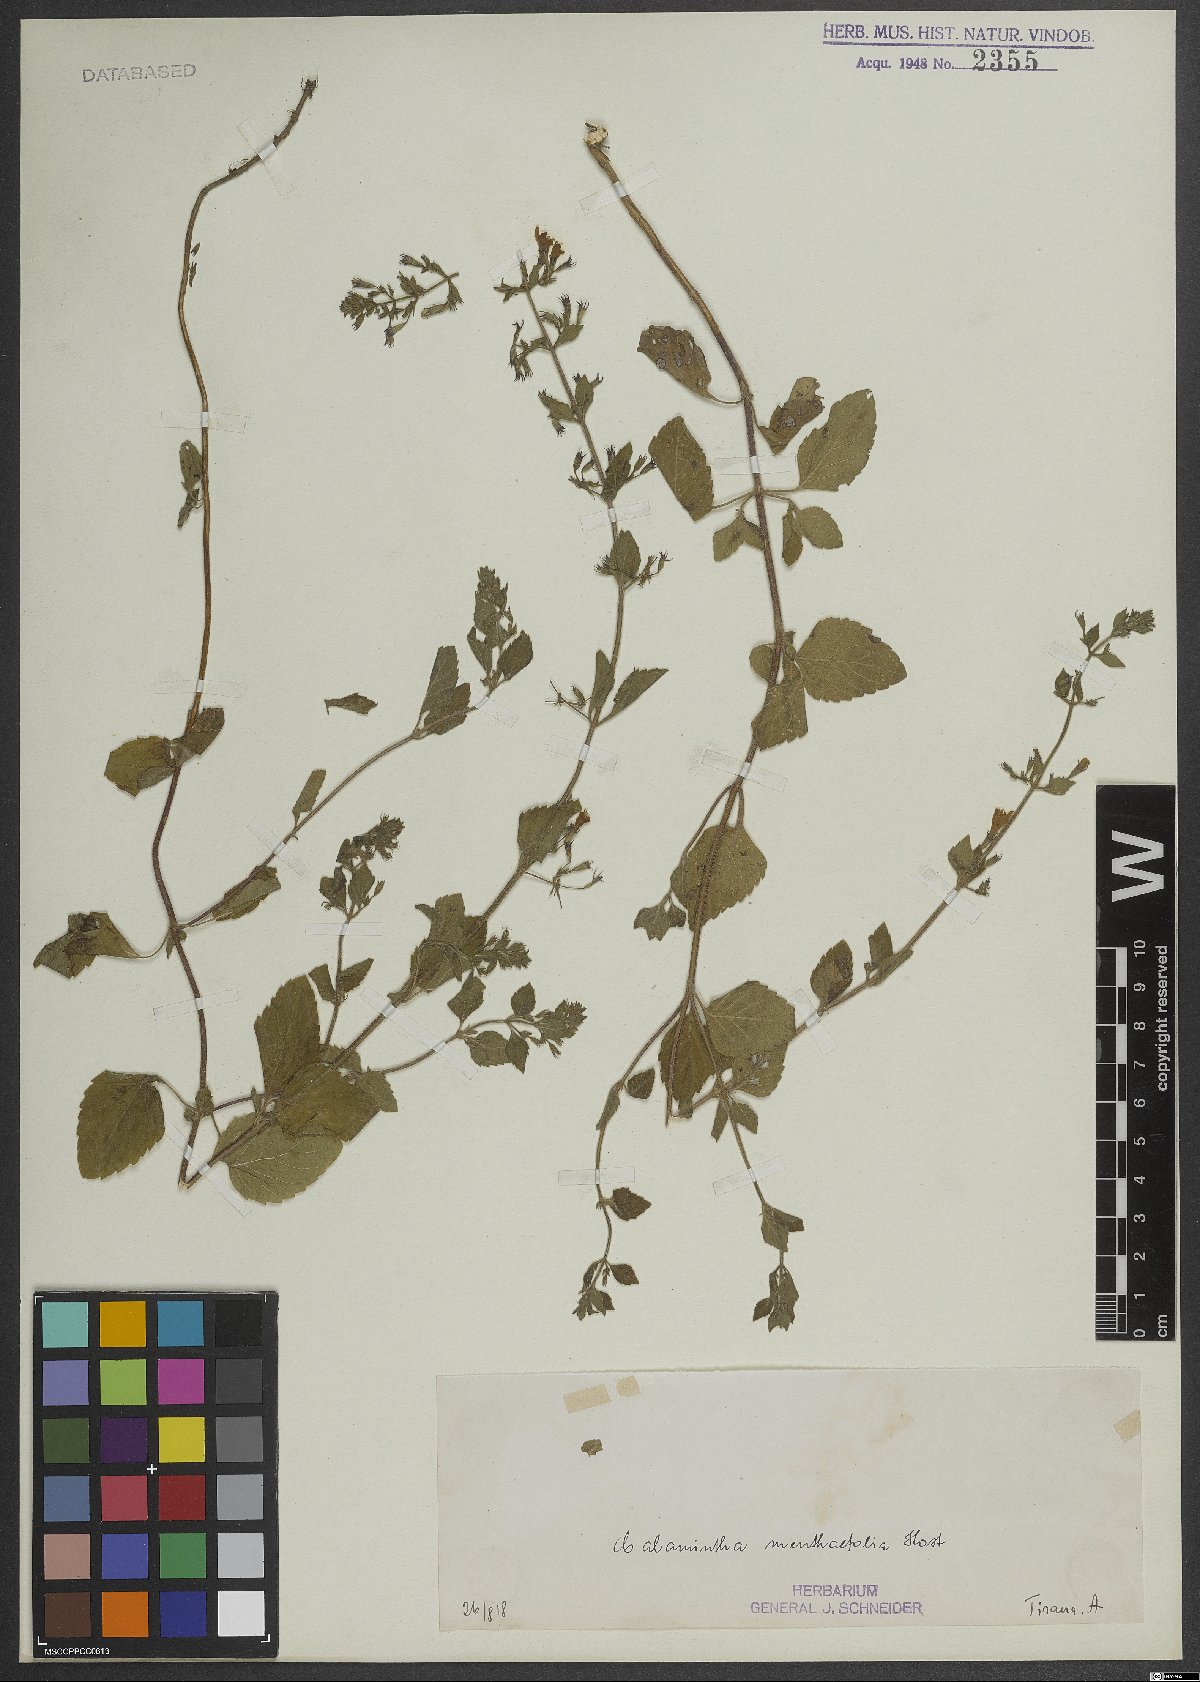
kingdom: Plantae
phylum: Tracheophyta
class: Magnoliopsida
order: Lamiales
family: Lamiaceae
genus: Calamintha
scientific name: Calamintha
